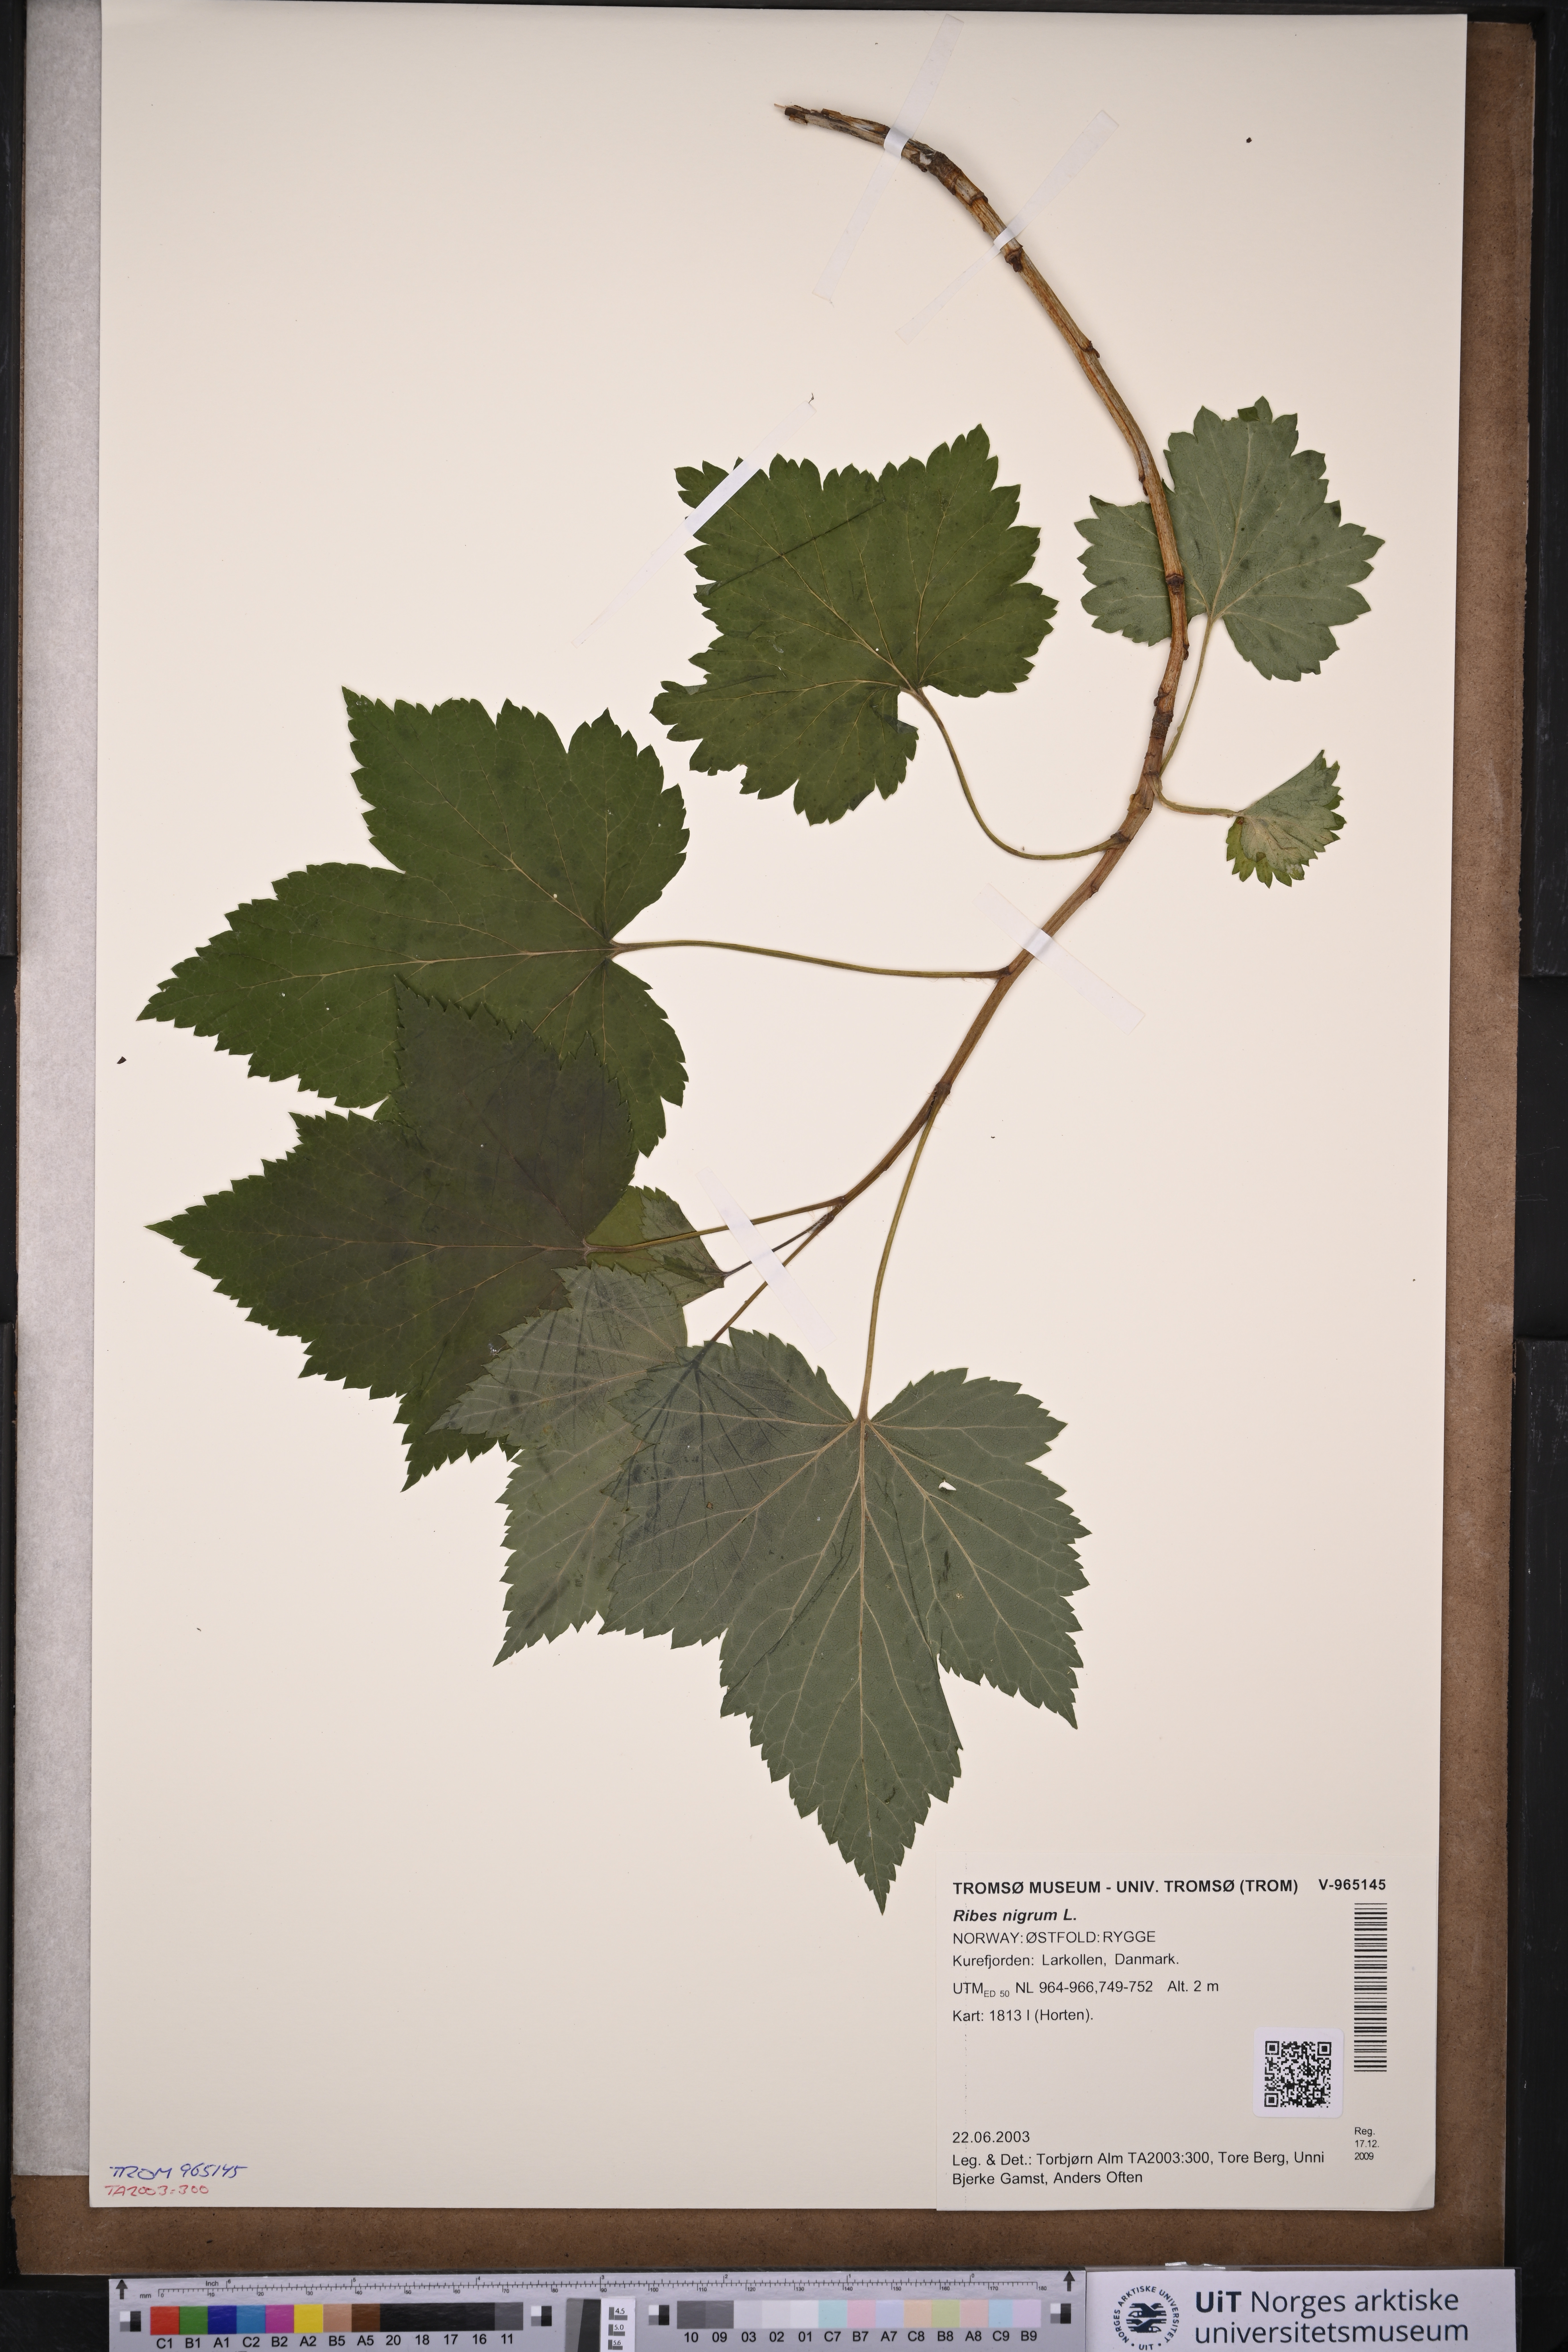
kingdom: Plantae
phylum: Tracheophyta
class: Magnoliopsida
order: Saxifragales
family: Grossulariaceae
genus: Ribes
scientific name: Ribes nigrum
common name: Black currant
